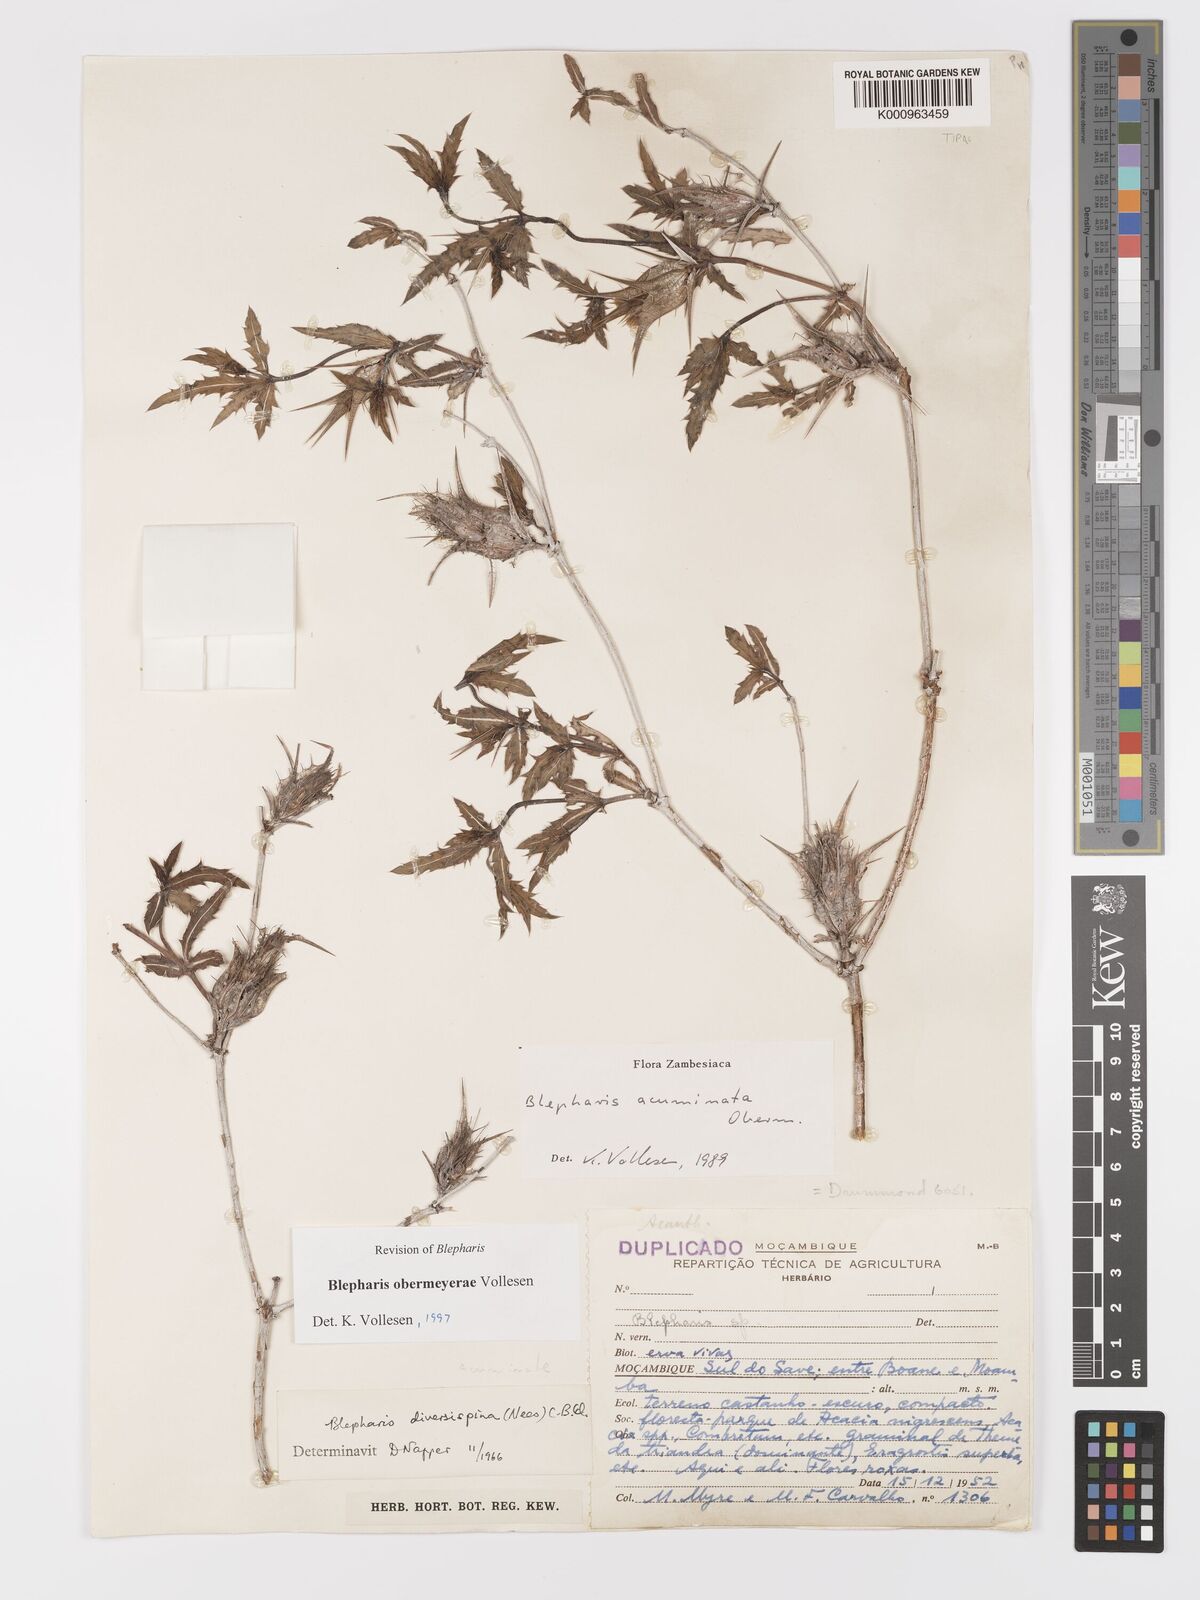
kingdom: Plantae
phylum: Tracheophyta
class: Magnoliopsida
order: Lamiales
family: Acanthaceae
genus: Blepharis
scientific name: Blepharis obermeyerae
